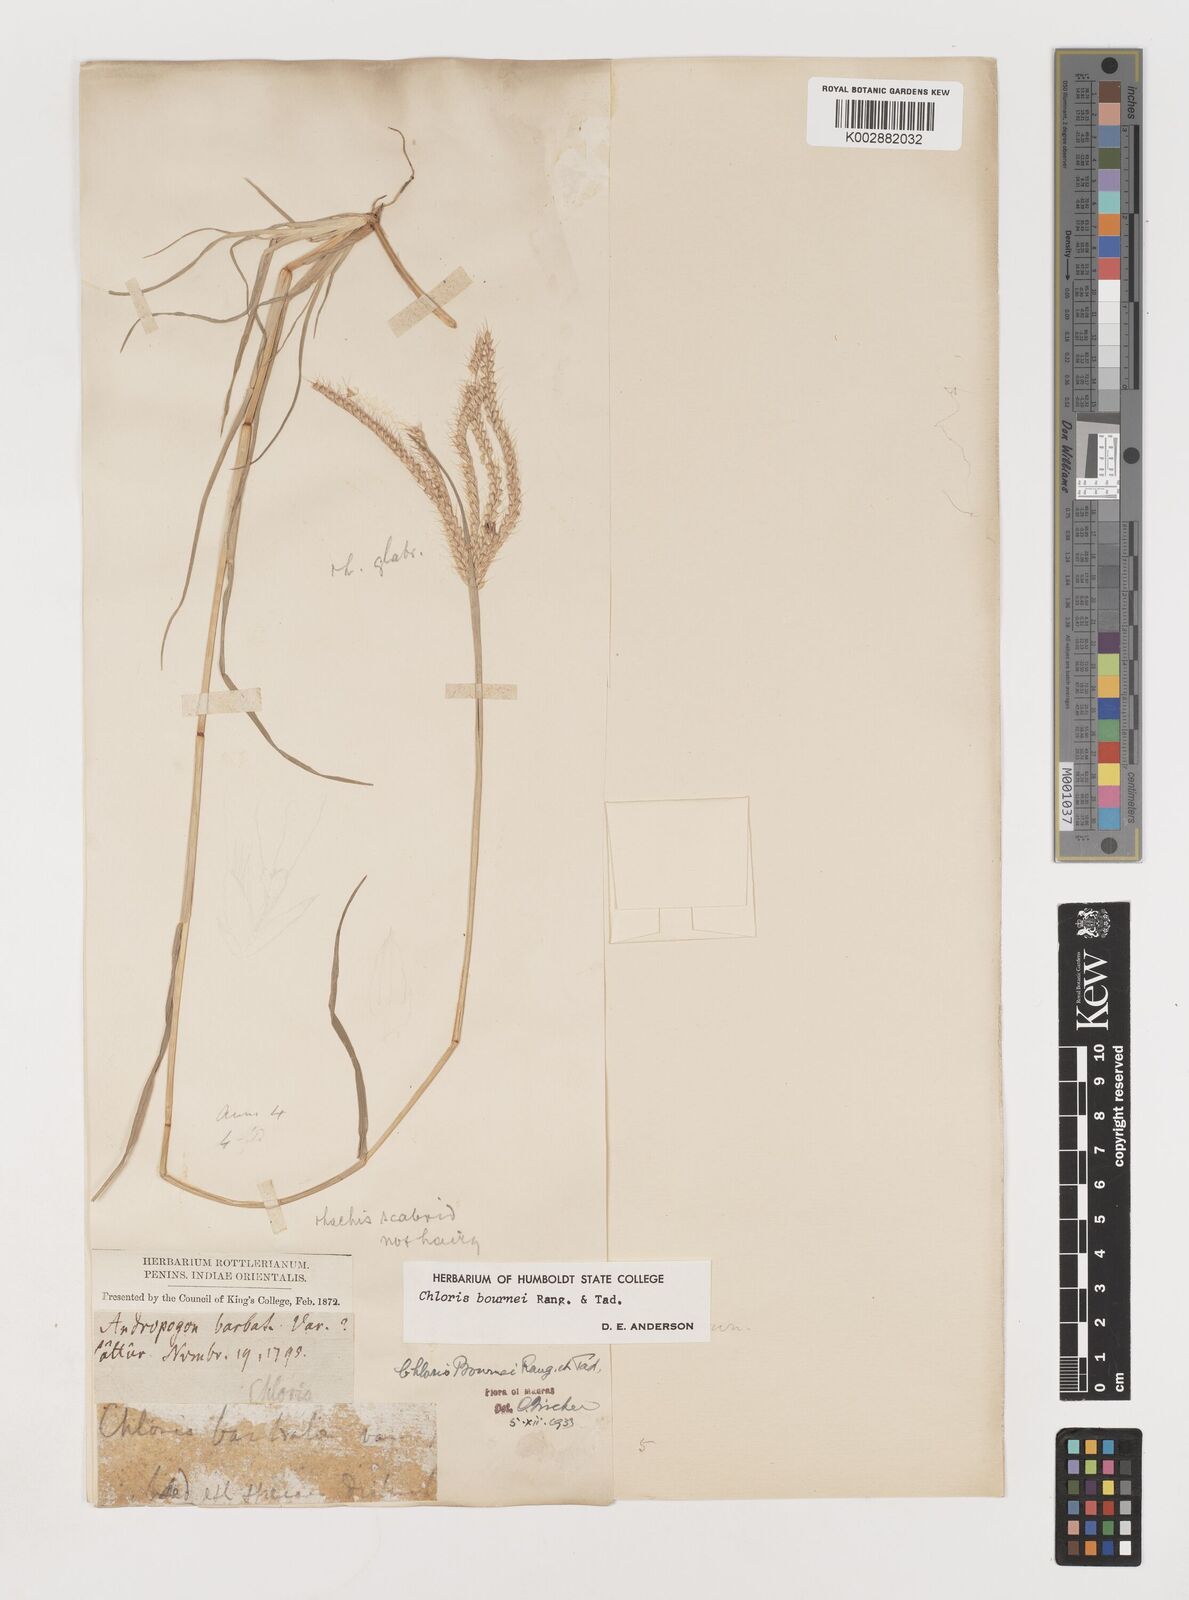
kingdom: Plantae
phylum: Tracheophyta
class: Liliopsida
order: Poales
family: Poaceae
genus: Chloris
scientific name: Chloris bournei
